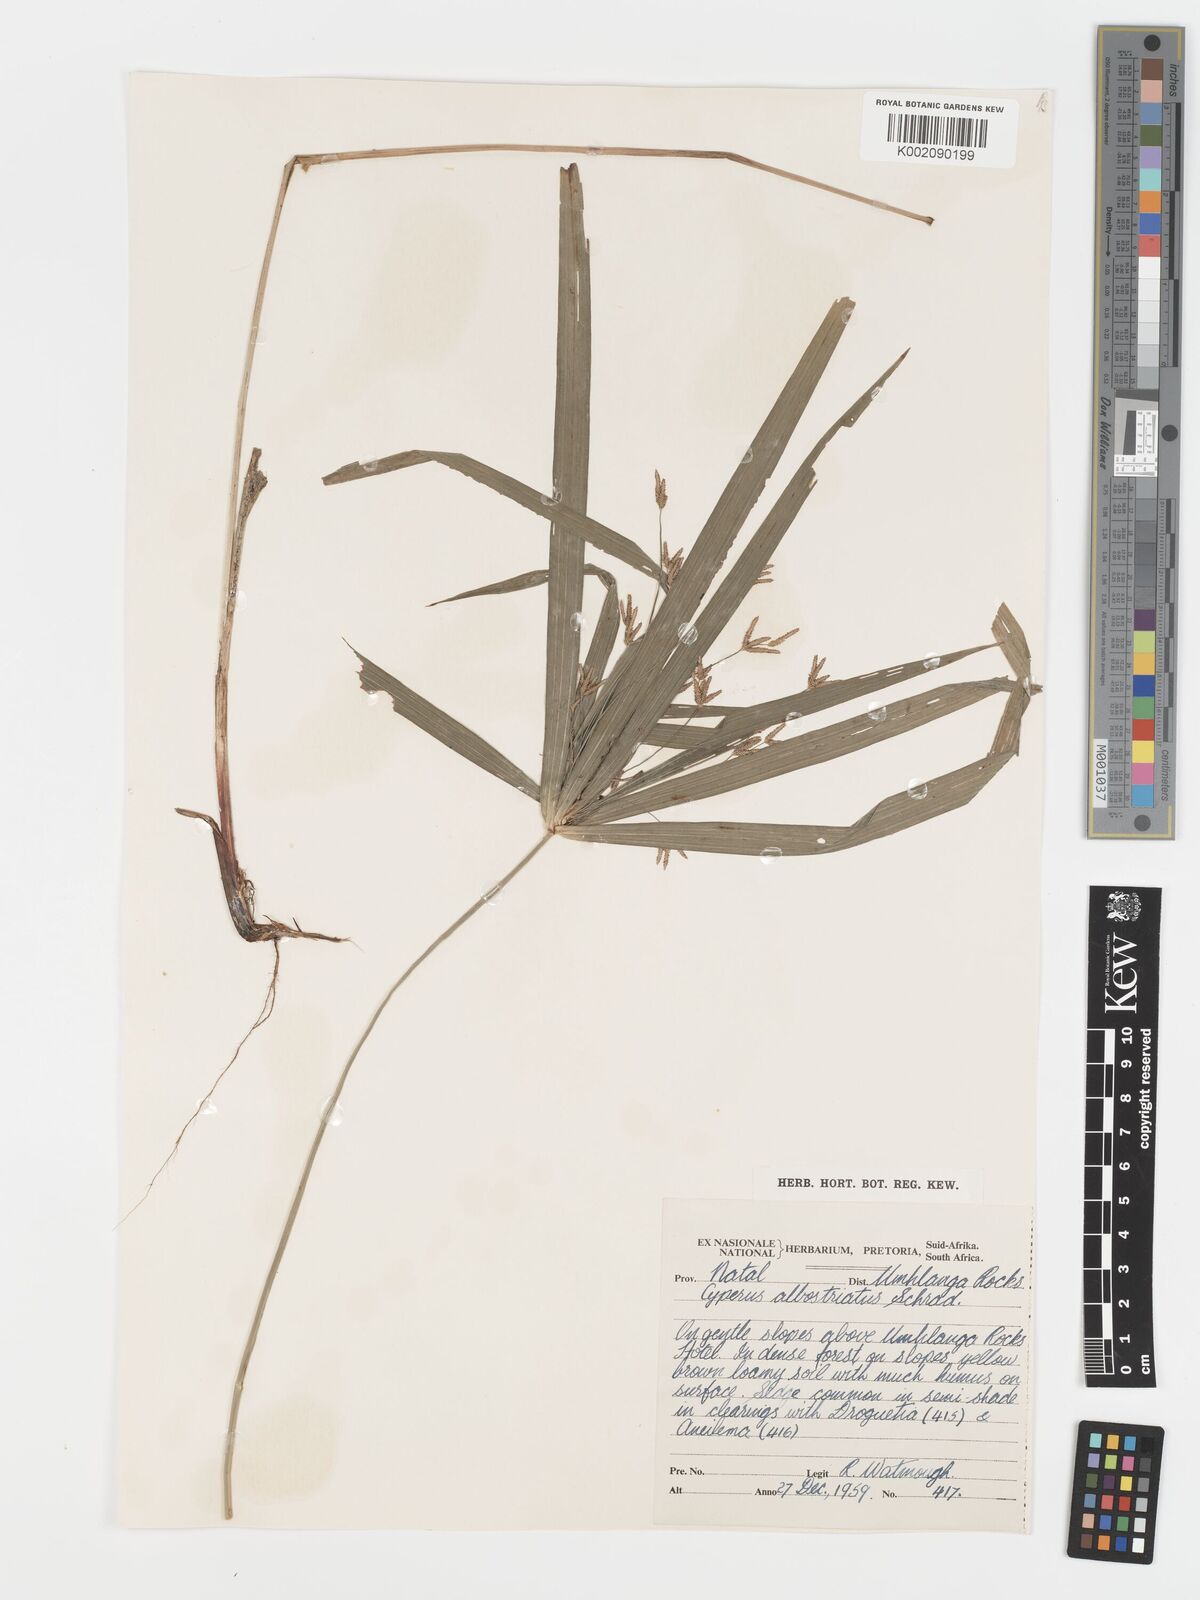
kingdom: Plantae
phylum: Tracheophyta
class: Liliopsida
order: Poales
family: Cyperaceae
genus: Cyperus
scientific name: Cyperus albostriatus
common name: Dwarf umbrella-grass
